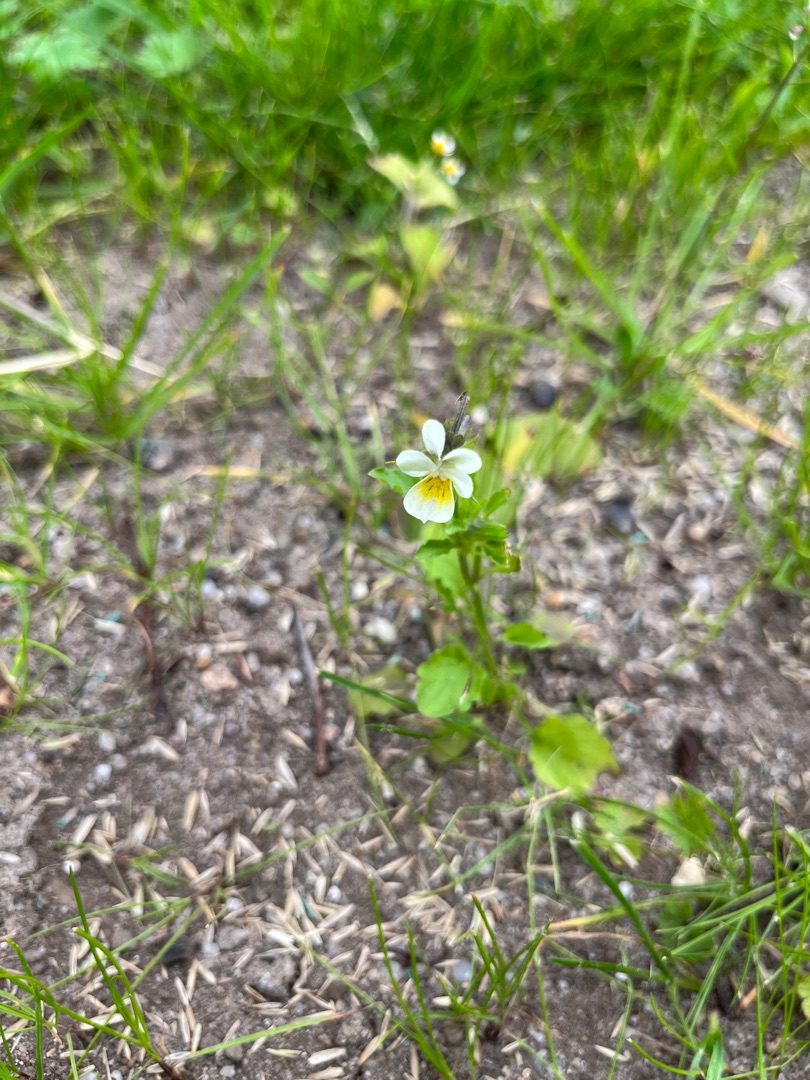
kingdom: Plantae
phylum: Tracheophyta
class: Magnoliopsida
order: Malpighiales
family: Violaceae
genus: Viola
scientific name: Viola arvensis
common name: Ager-stedmoderblomst
